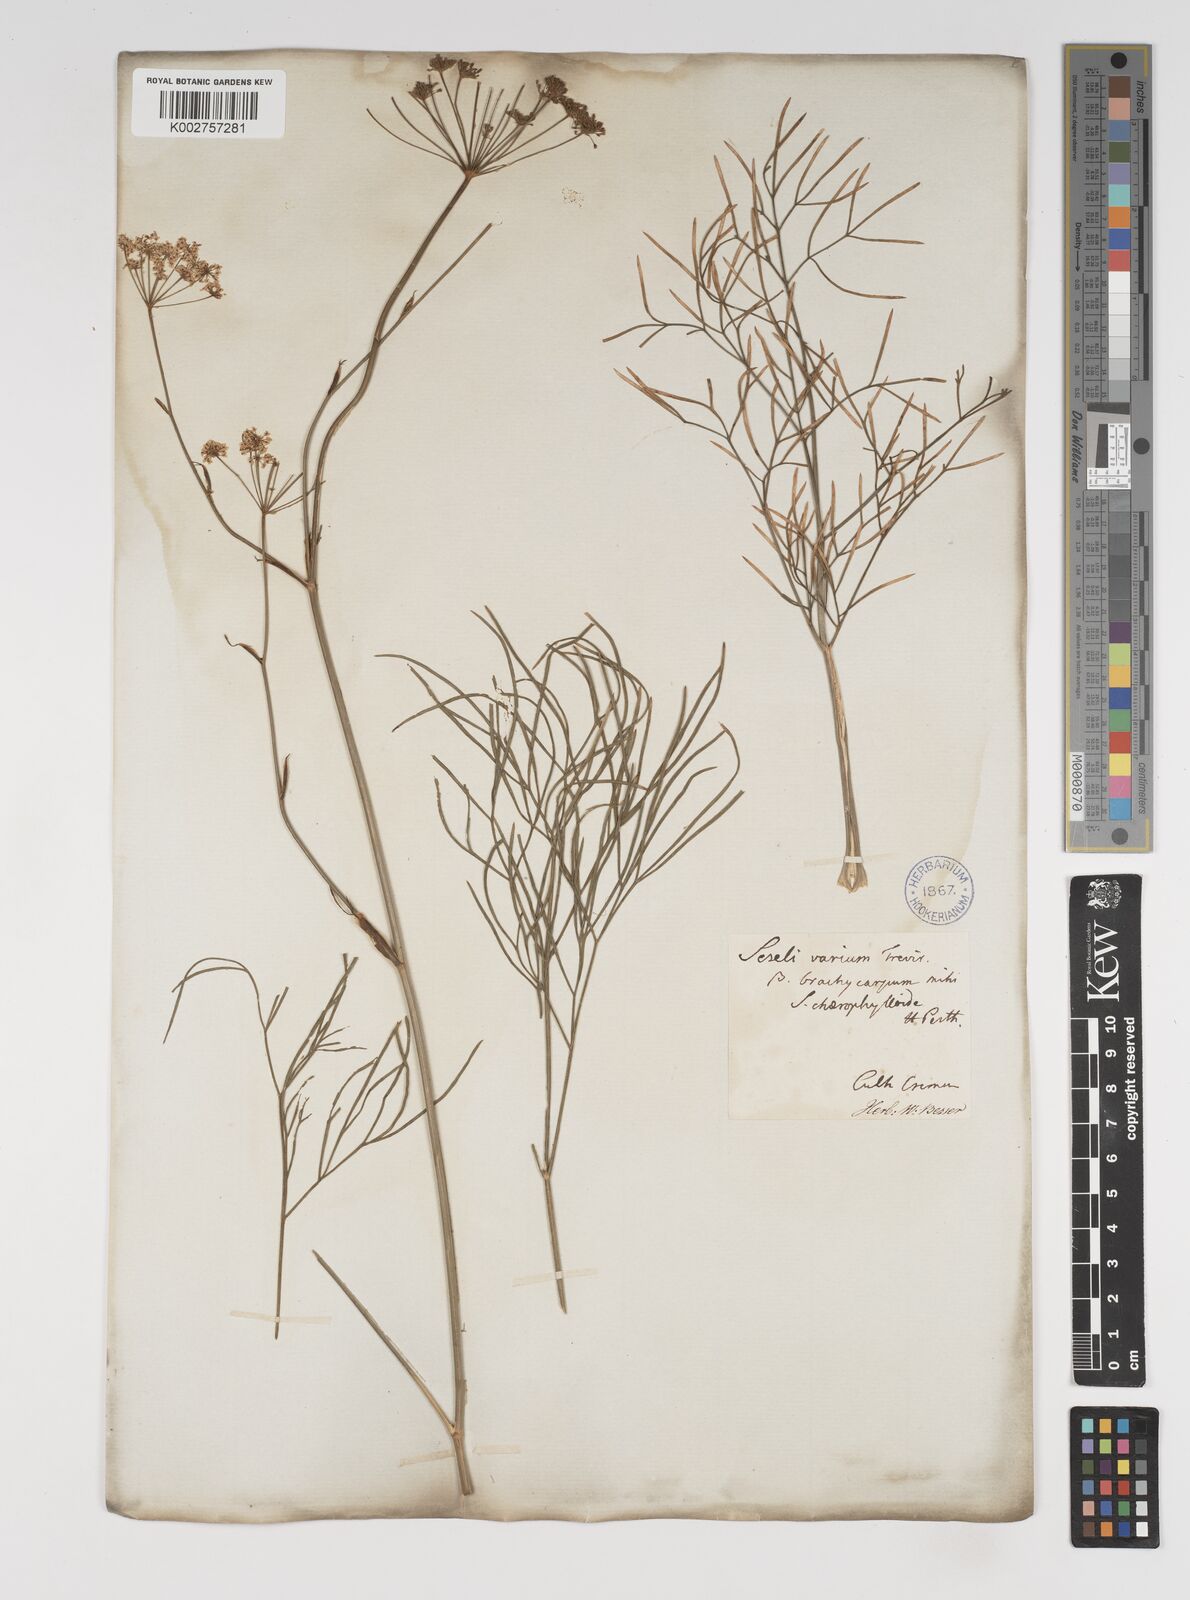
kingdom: Plantae
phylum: Tracheophyta
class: Magnoliopsida
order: Apiales
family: Apiaceae
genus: Seseli
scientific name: Seseli pallasii
